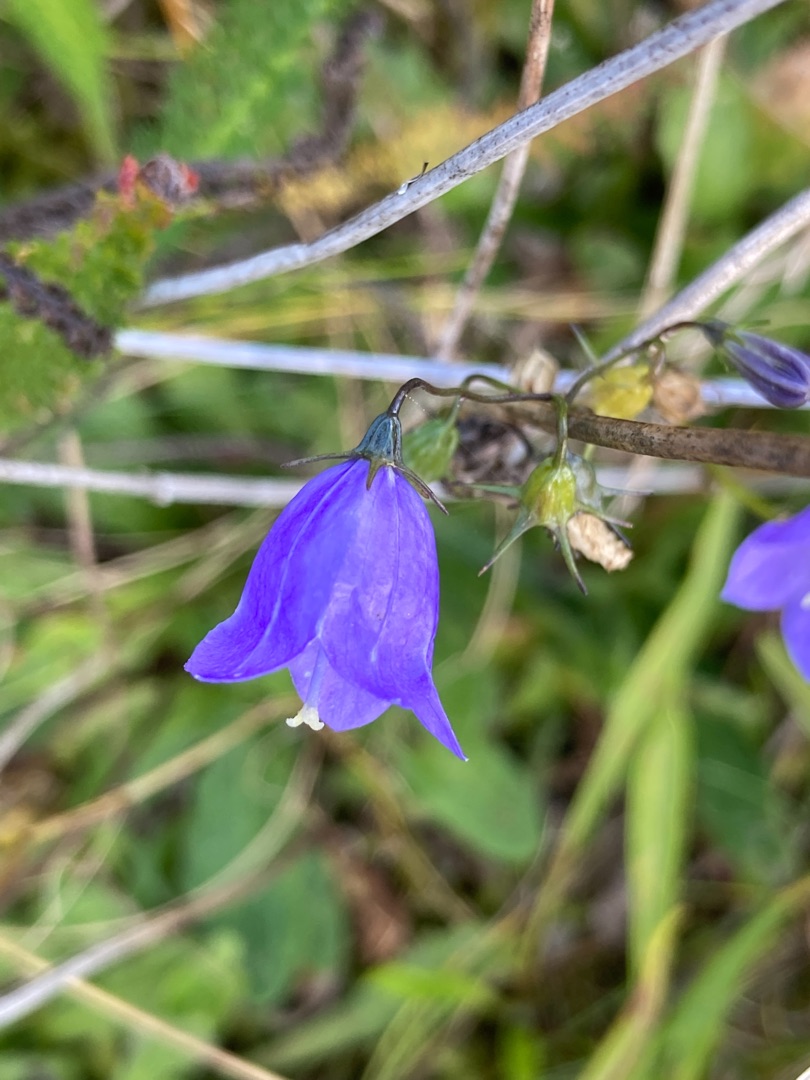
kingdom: Plantae
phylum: Tracheophyta
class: Magnoliopsida
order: Asterales
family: Campanulaceae
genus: Campanula
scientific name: Campanula rotundifolia
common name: Liden klokke
